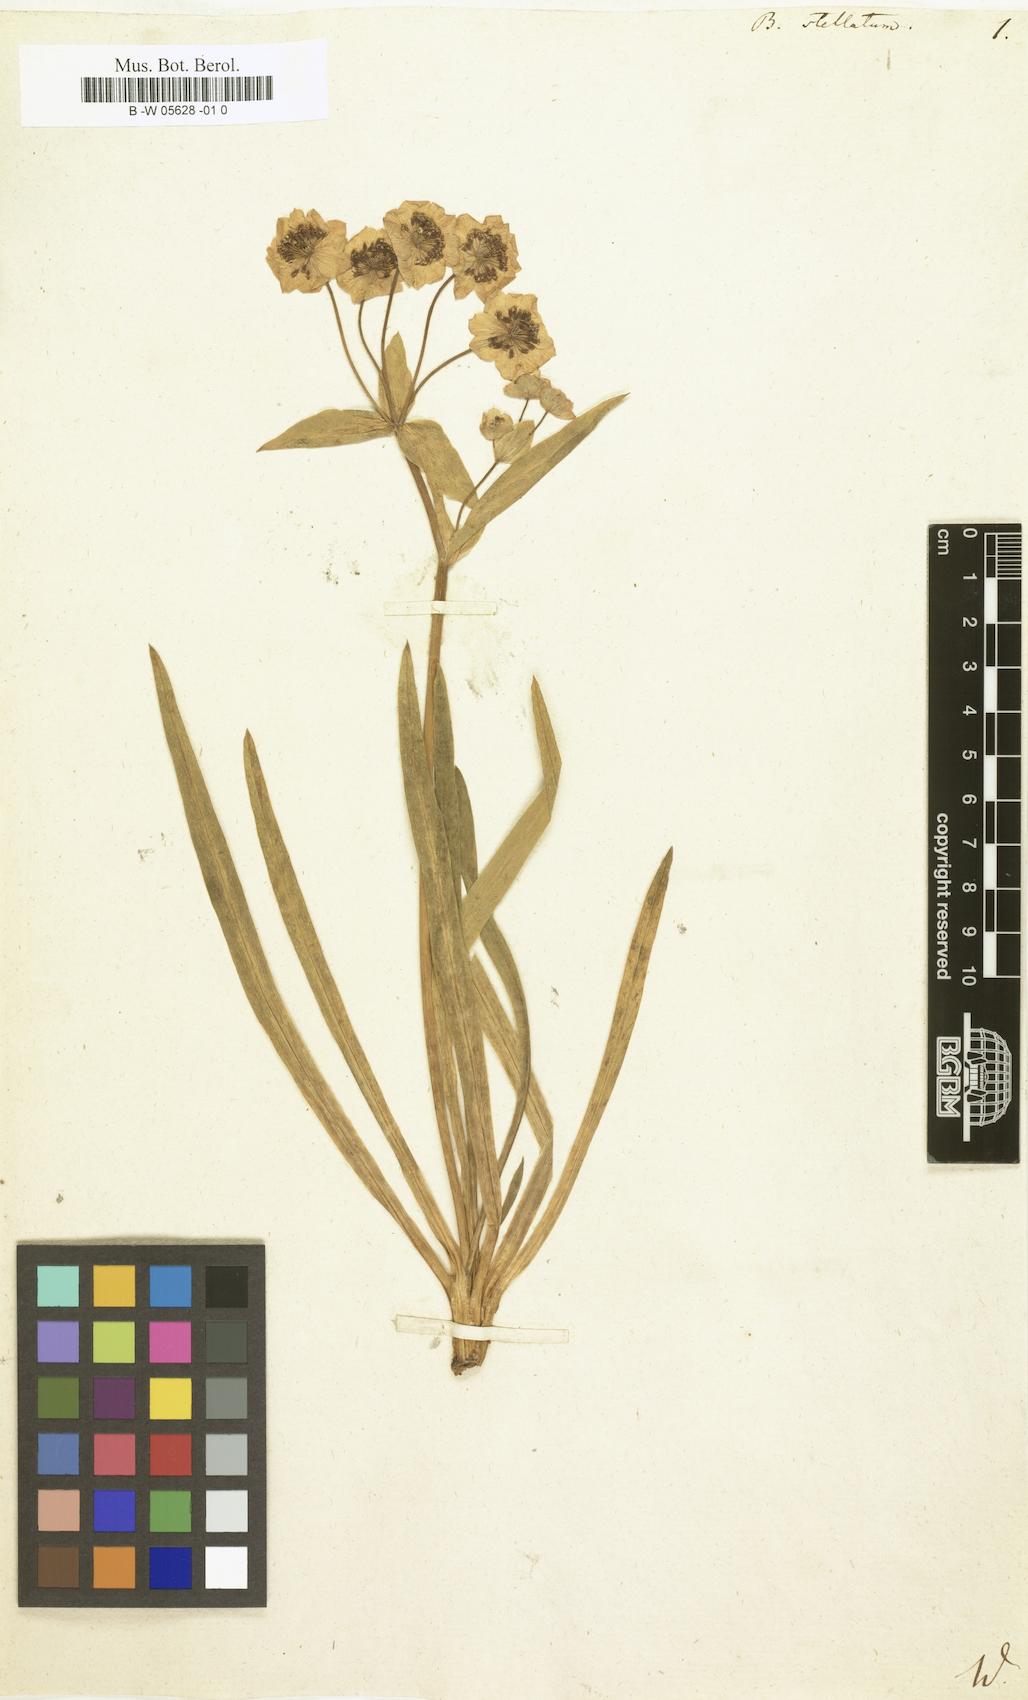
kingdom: Plantae
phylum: Tracheophyta
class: Magnoliopsida
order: Apiales
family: Apiaceae
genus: Bupleurum
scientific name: Bupleurum stellatum
